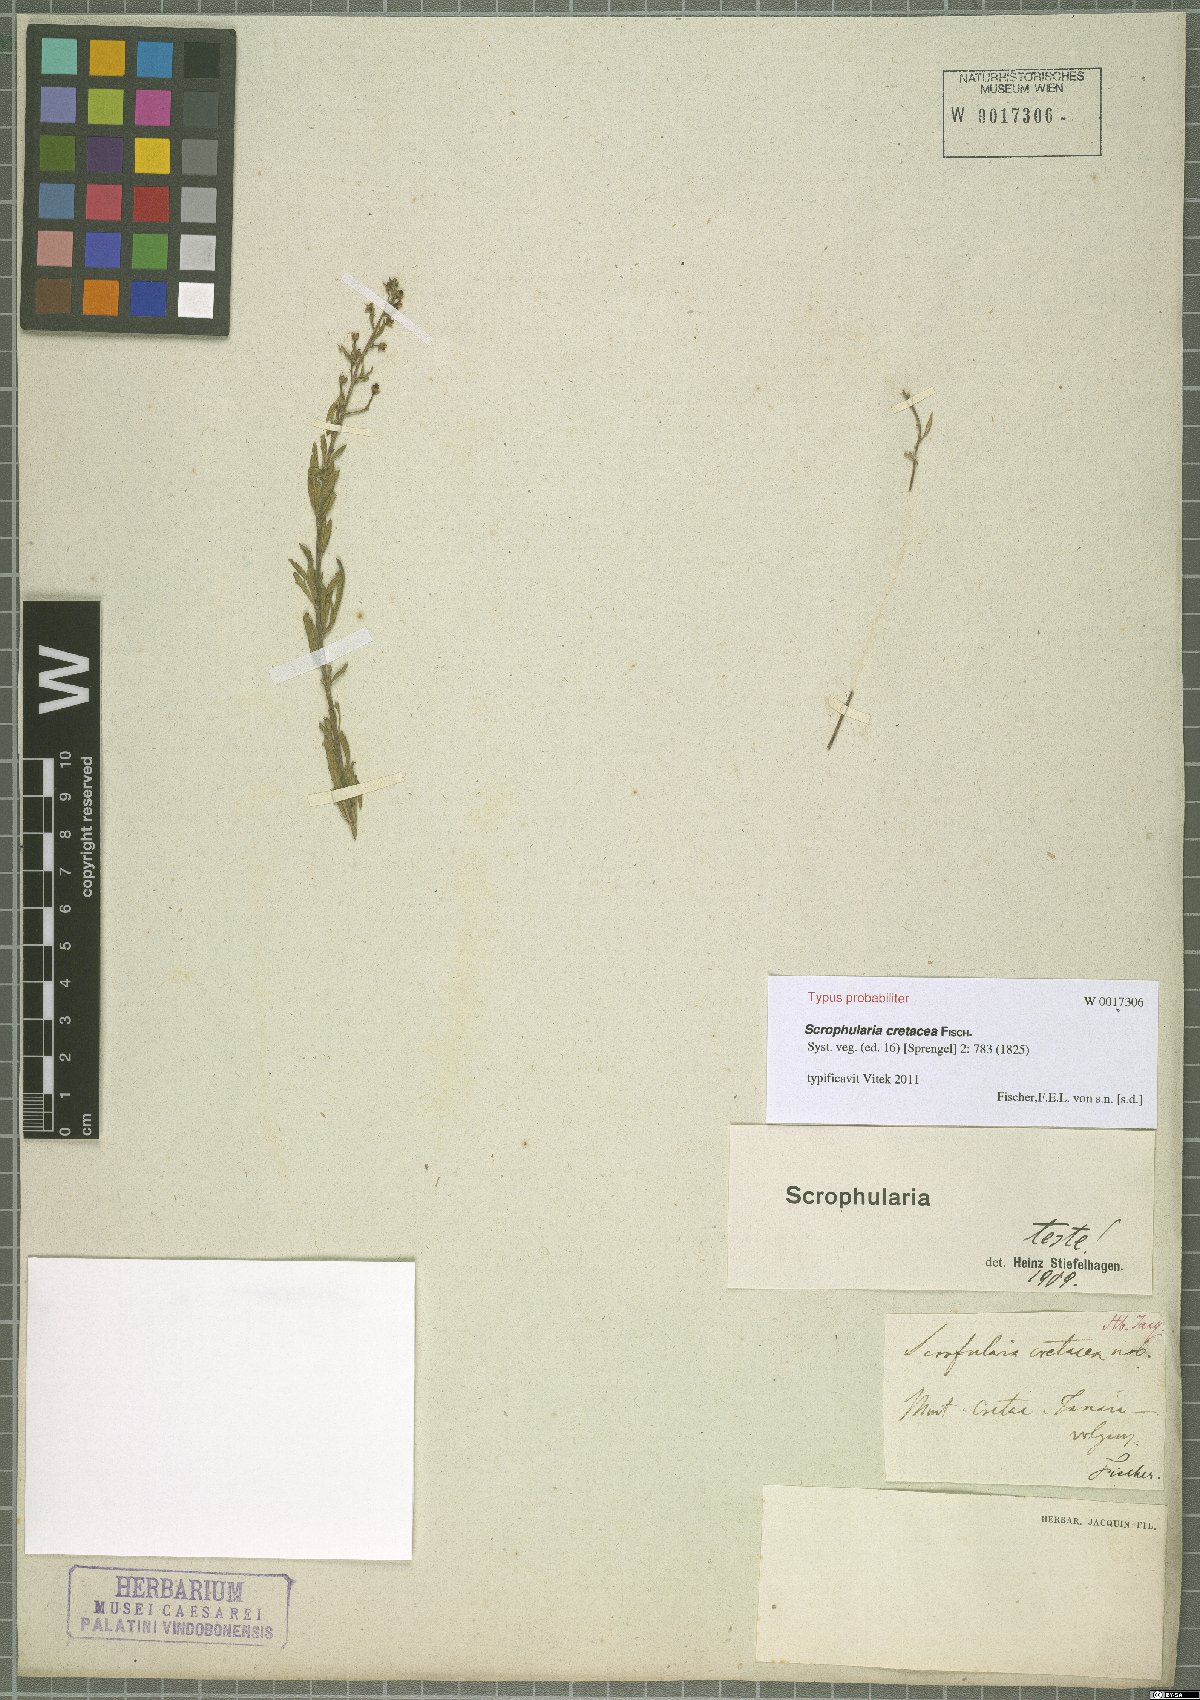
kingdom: Plantae
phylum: Tracheophyta
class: Magnoliopsida
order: Lamiales
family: Scrophulariaceae
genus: Scrophularia
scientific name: Scrophularia cretacea
